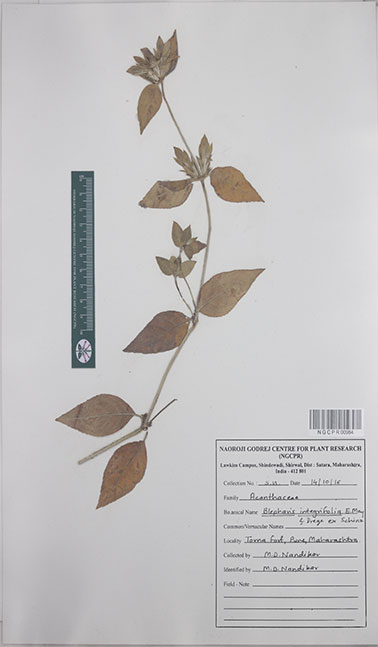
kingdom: Plantae
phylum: Tracheophyta
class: Magnoliopsida
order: Lamiales
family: Acanthaceae
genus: Blepharis
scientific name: Blepharis integrifolia
